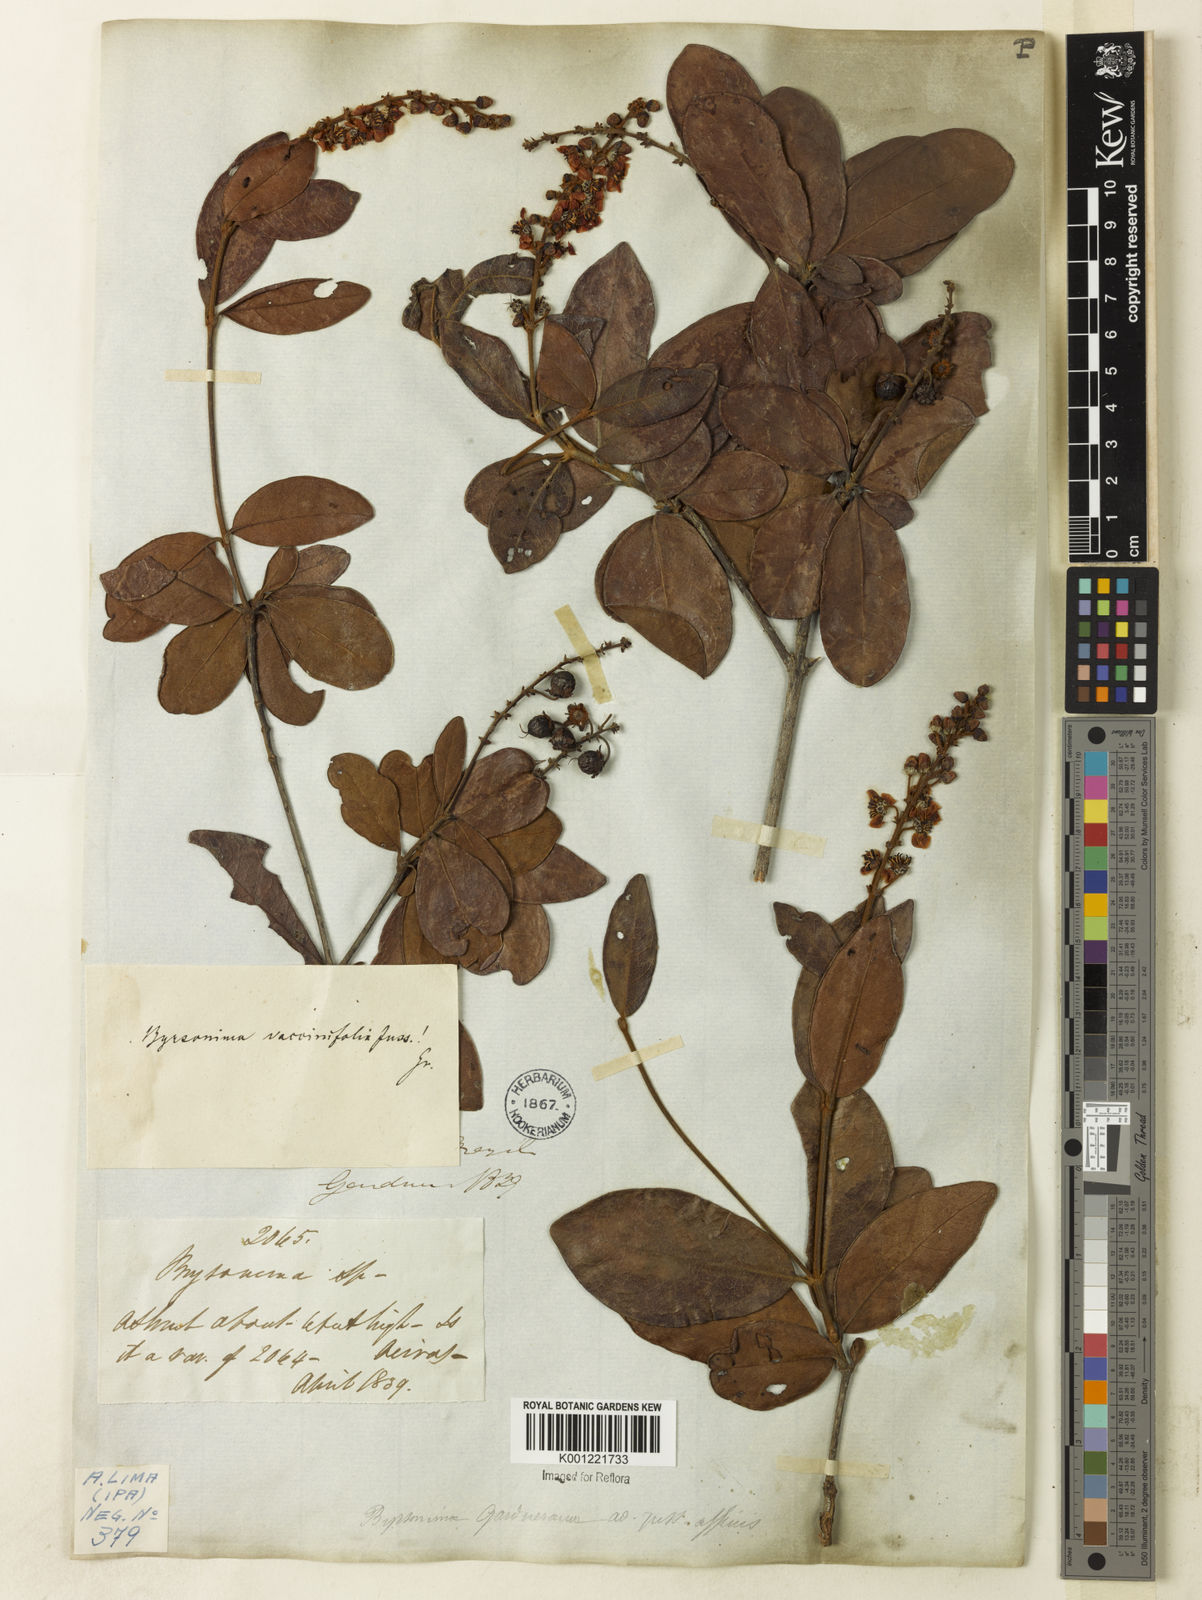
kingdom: Plantae
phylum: Tracheophyta
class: Magnoliopsida
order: Malpighiales
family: Malpighiaceae
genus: Byrsonima
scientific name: Byrsonima vacciniifolia
